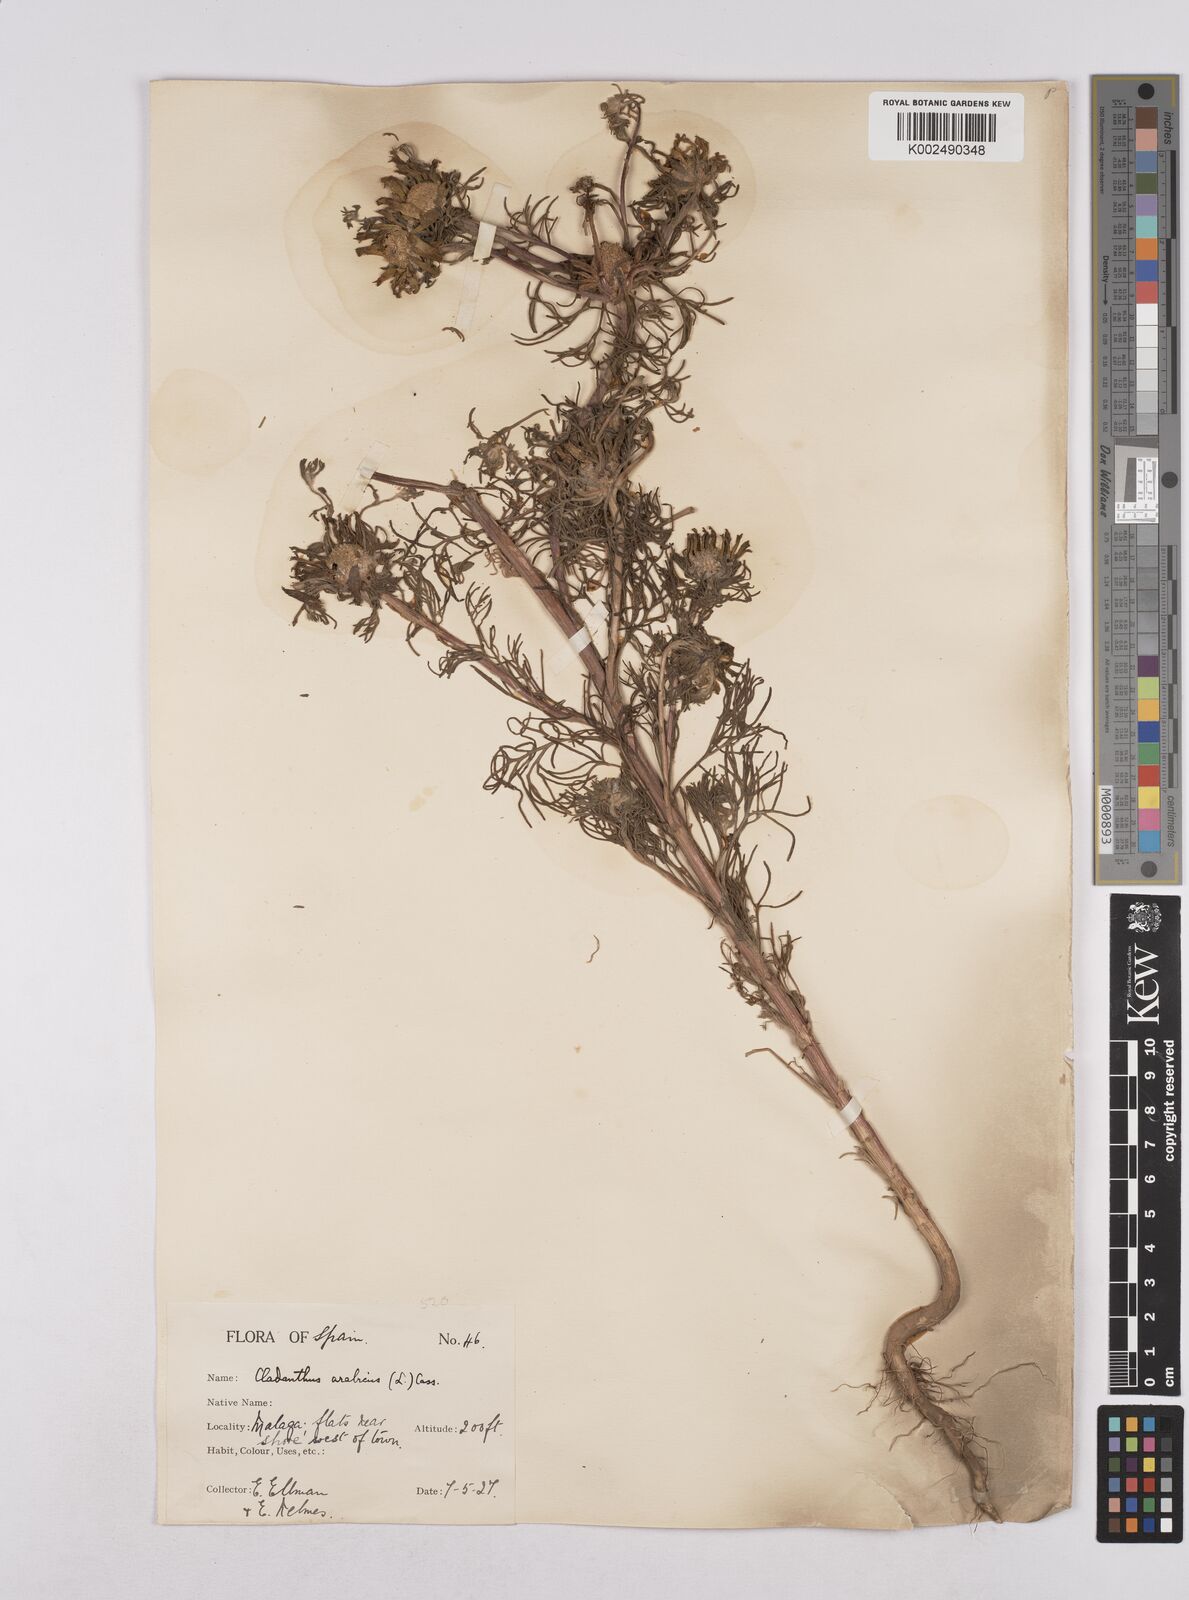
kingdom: Plantae
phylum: Tracheophyta
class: Magnoliopsida
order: Asterales
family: Asteraceae
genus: Cladanthus
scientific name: Cladanthus arabicus
